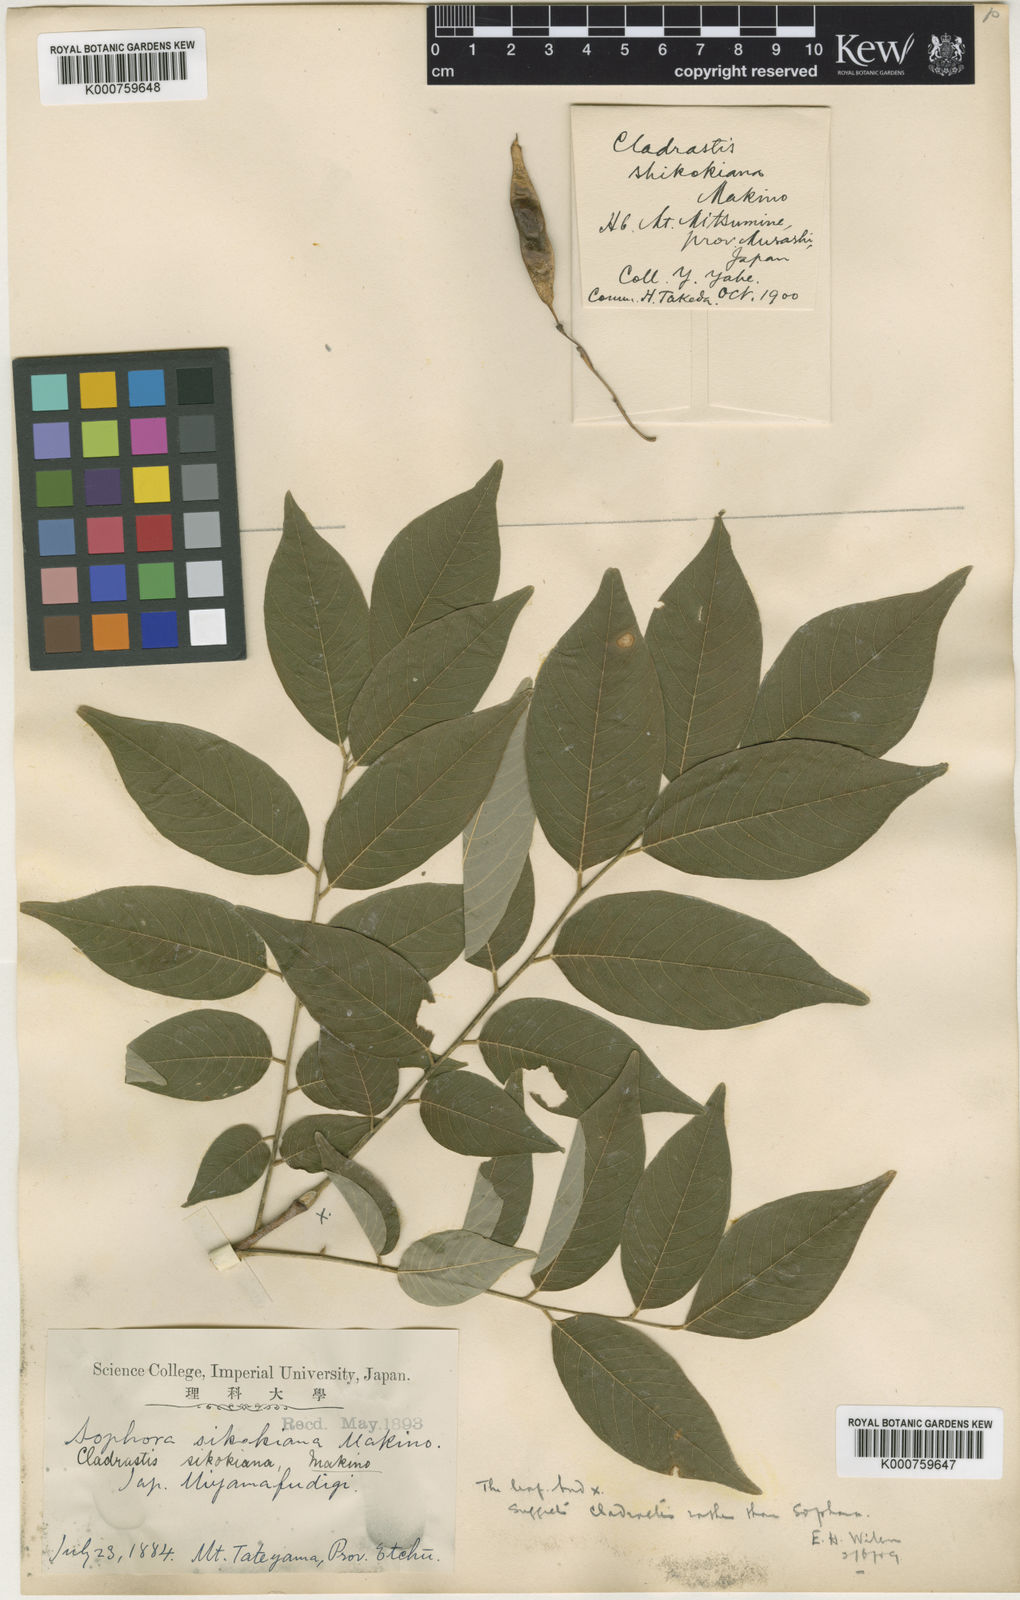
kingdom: Plantae
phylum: Tracheophyta
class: Magnoliopsida
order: Fabales
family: Fabaceae
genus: Cladrastis
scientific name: Cladrastis
